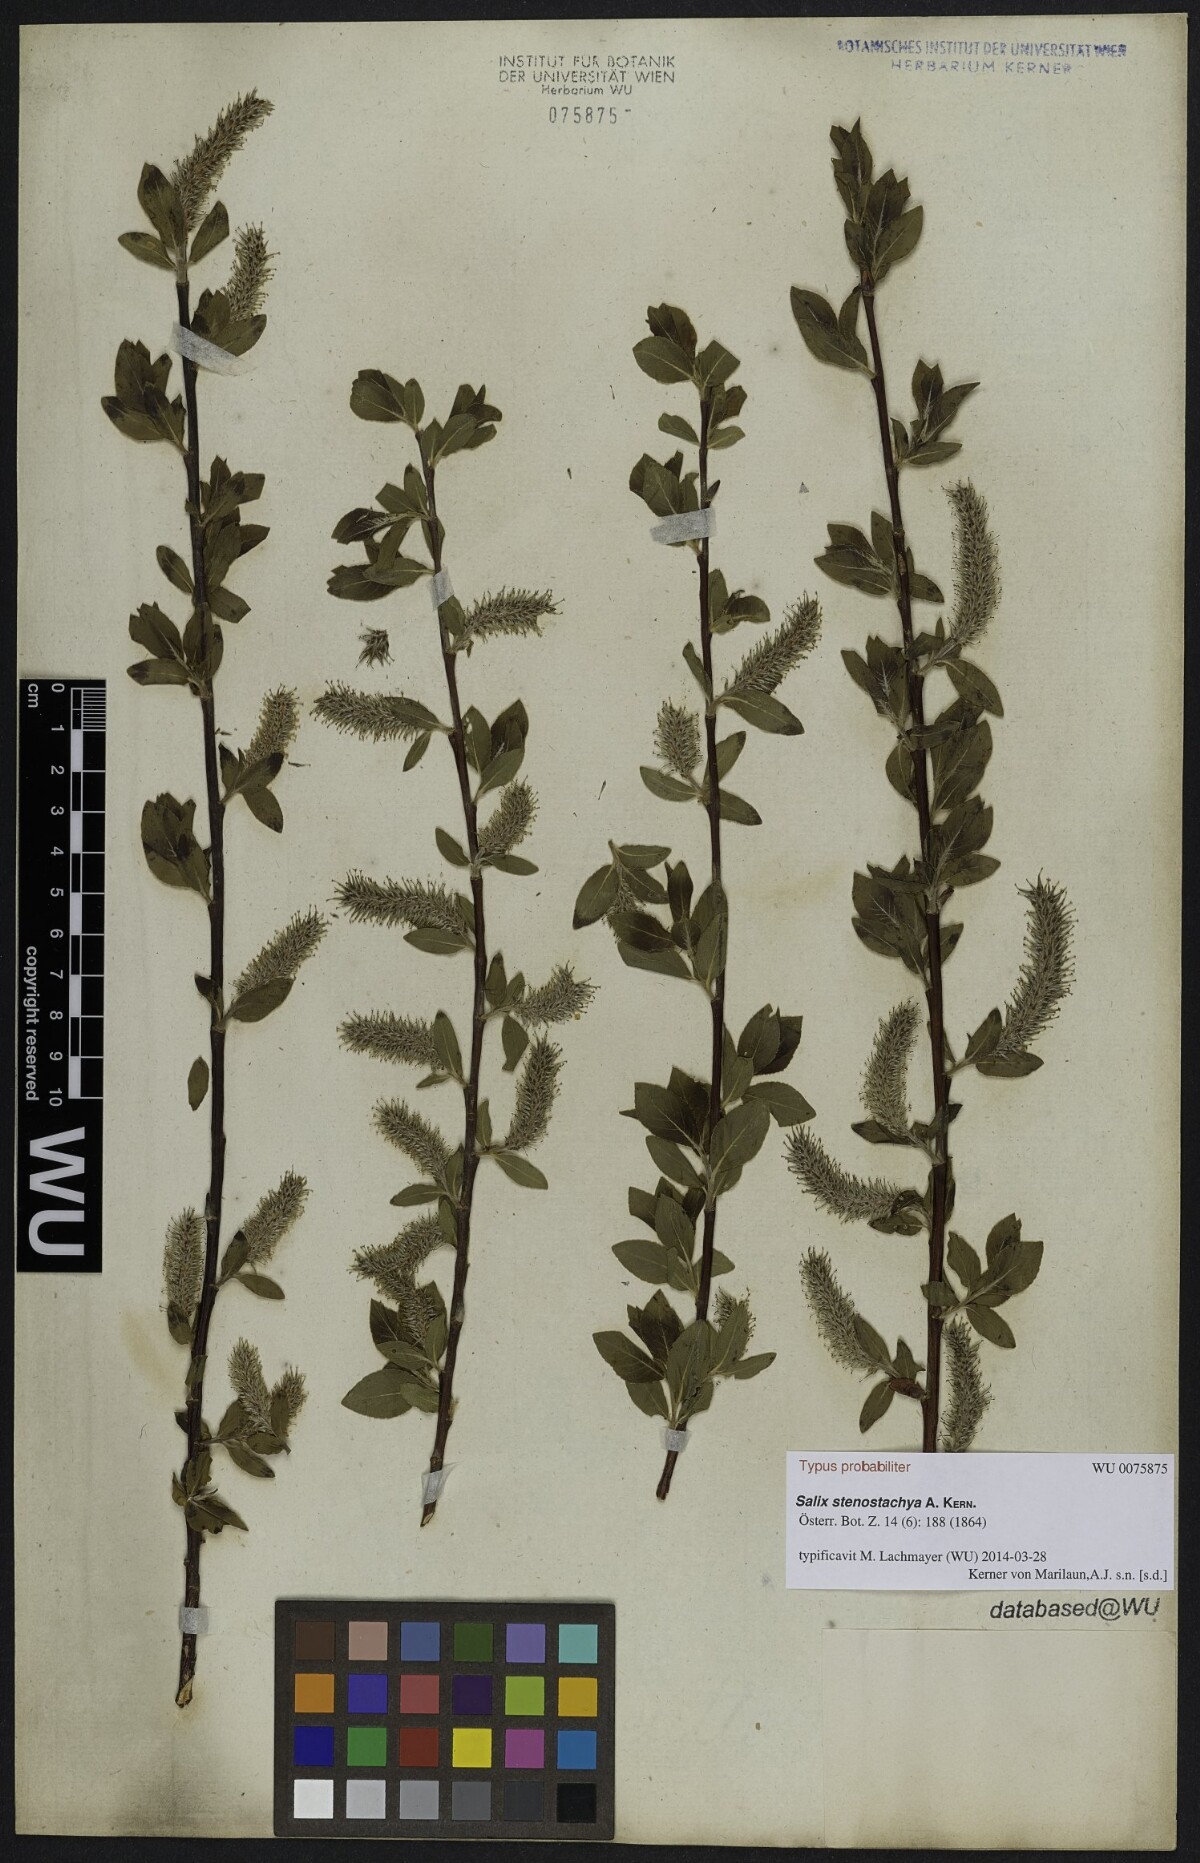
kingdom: Plantae
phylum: Tracheophyta
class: Magnoliopsida
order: Malpighiales
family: Salicaceae
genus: Salix
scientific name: Salix glabra
